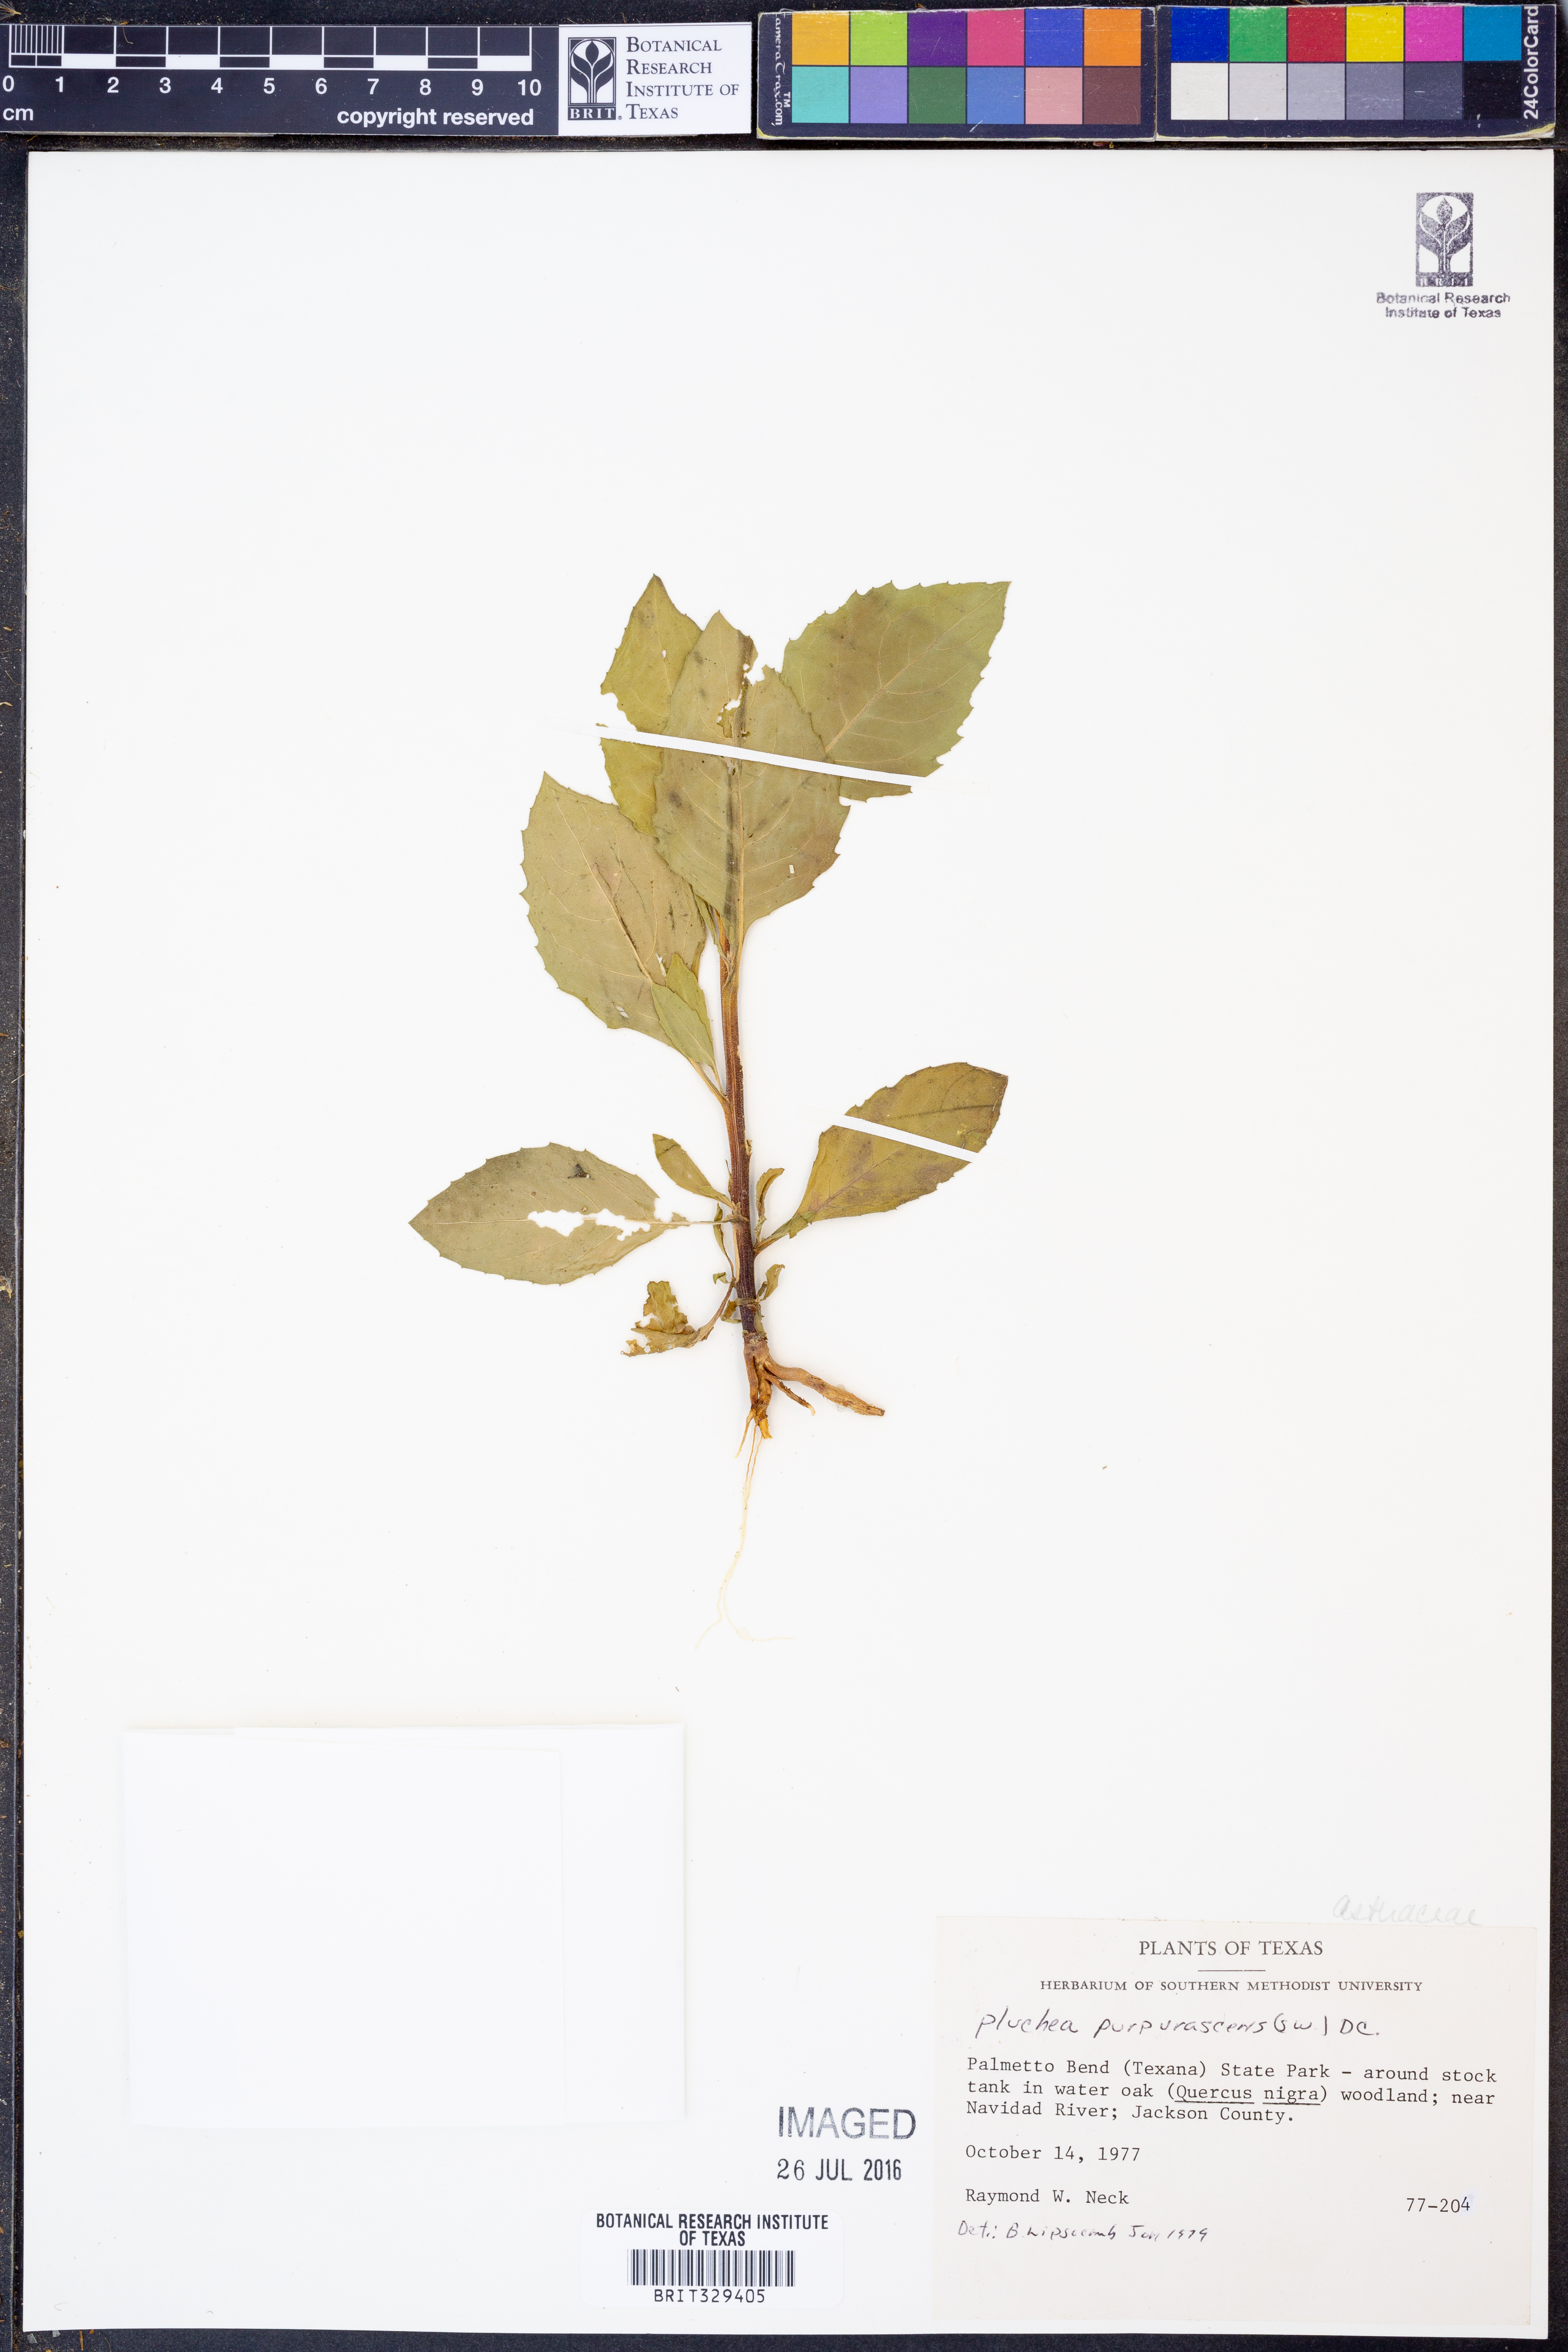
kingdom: Plantae
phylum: Tracheophyta
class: Magnoliopsida
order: Asterales
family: Asteraceae
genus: Pluchea
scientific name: Pluchea odorata
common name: Saltmarsh fleabane
